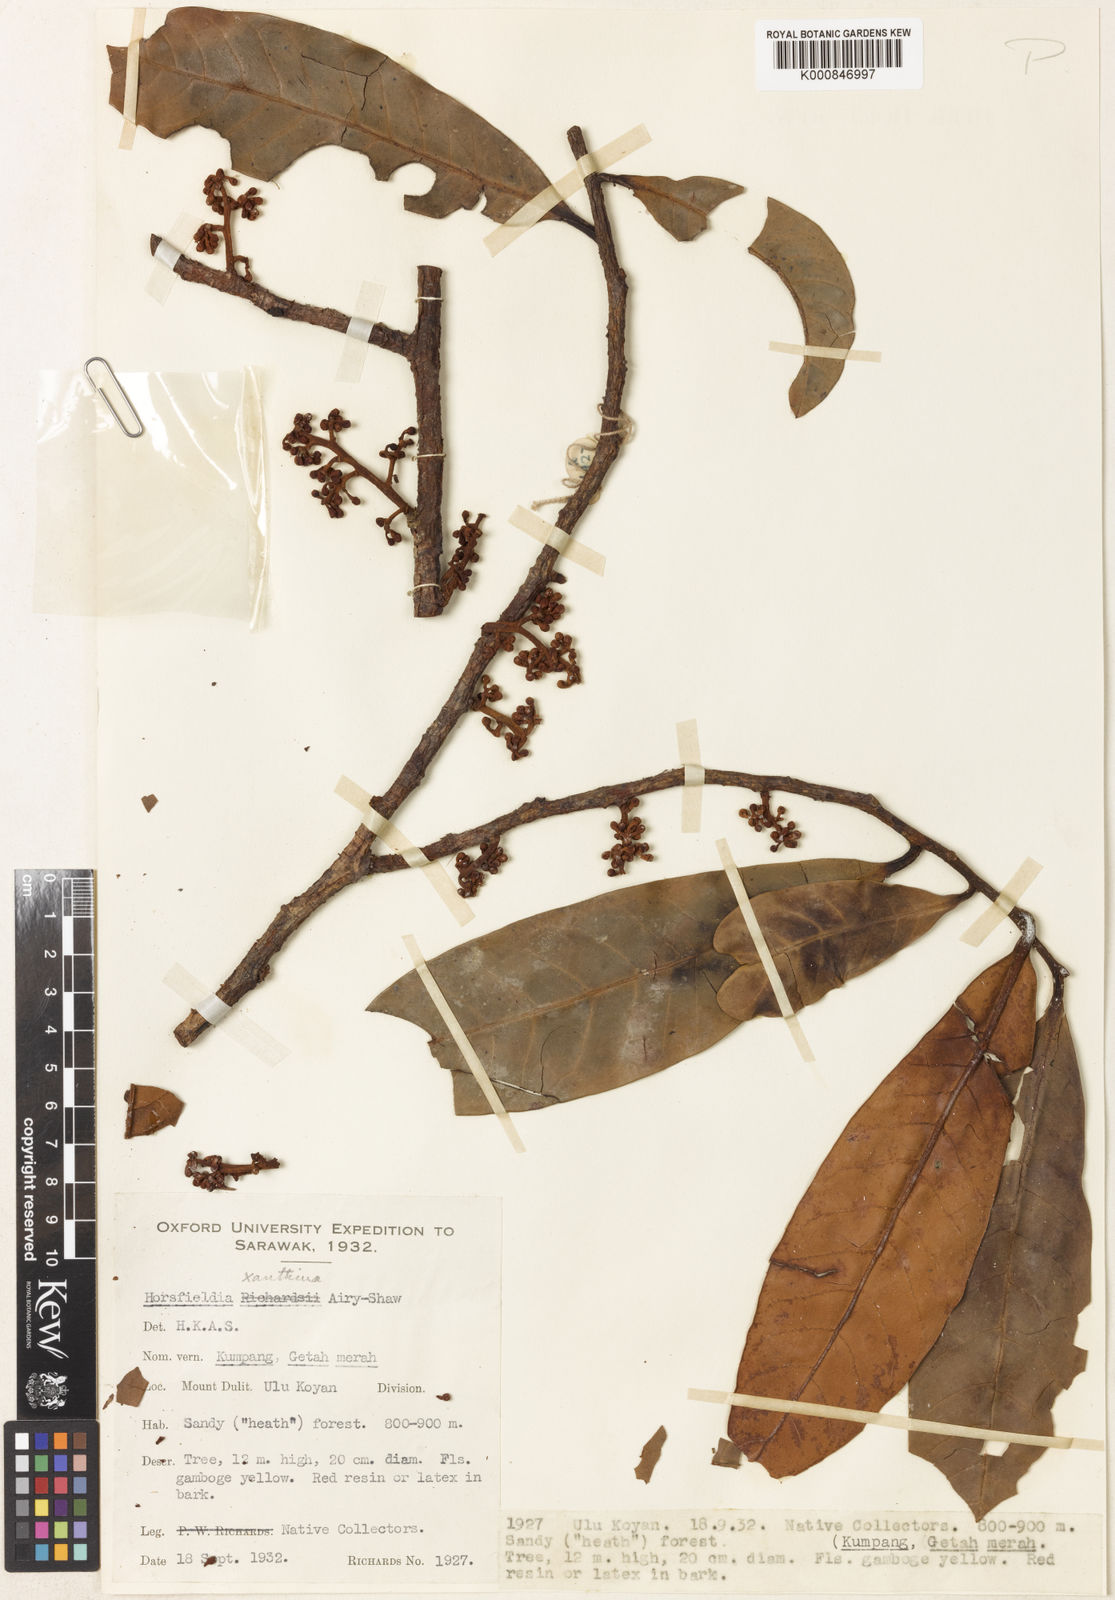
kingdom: Plantae
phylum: Tracheophyta
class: Magnoliopsida
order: Magnoliales
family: Myristicaceae
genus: Horsfieldia
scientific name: Horsfieldia xanthina
